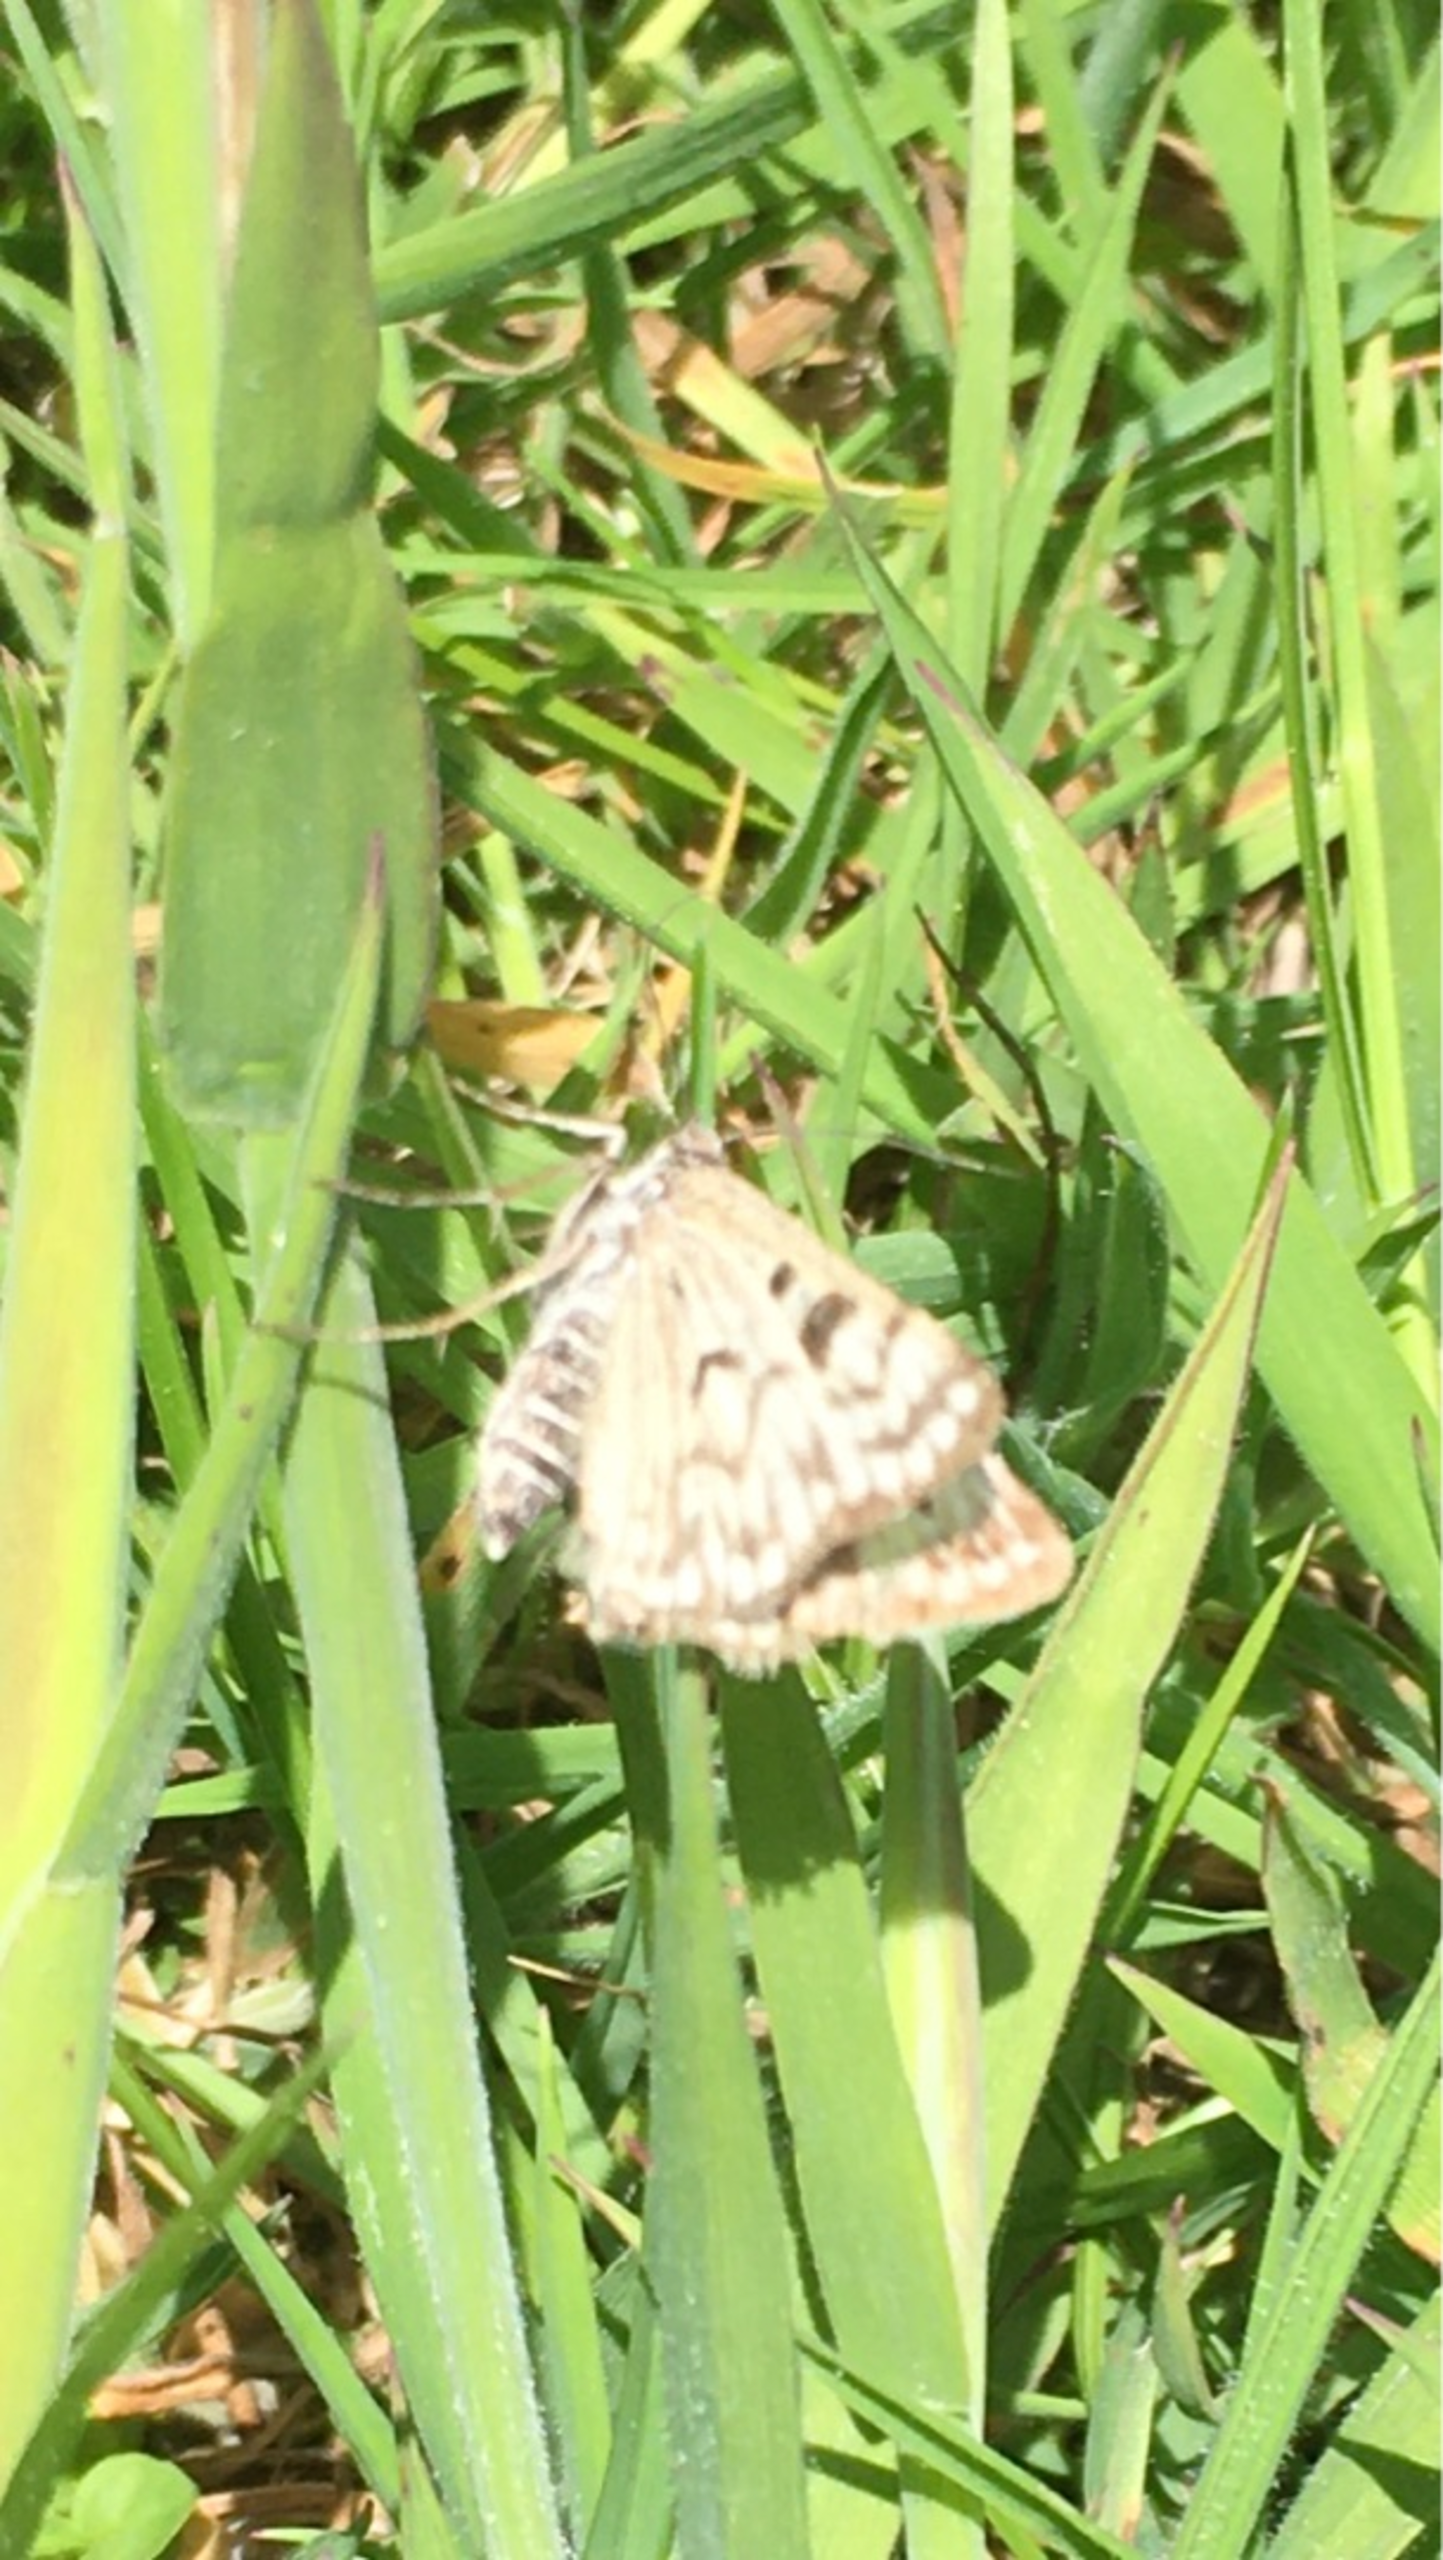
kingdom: Animalia
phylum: Arthropoda
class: Insecta
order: Lepidoptera
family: Erebidae
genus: Callistege
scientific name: Callistege mi
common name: Marmoreret kløverugle
